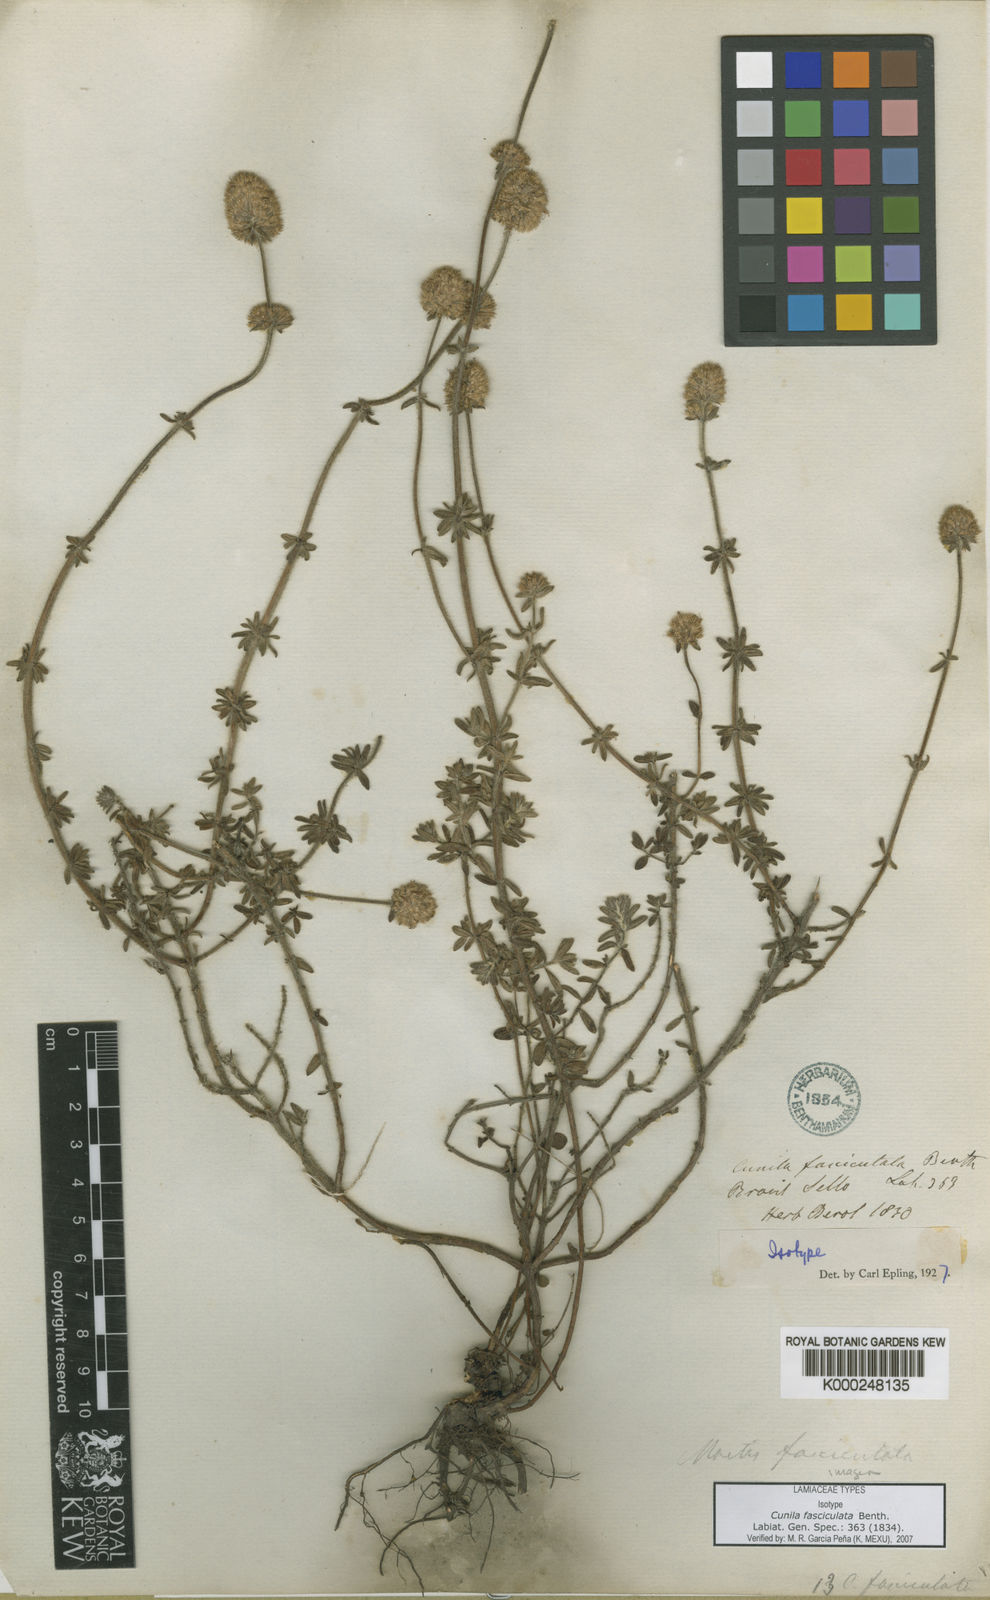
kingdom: Plantae
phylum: Tracheophyta
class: Magnoliopsida
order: Lamiales
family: Lamiaceae
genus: Cunila
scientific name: Cunila fasciculata
